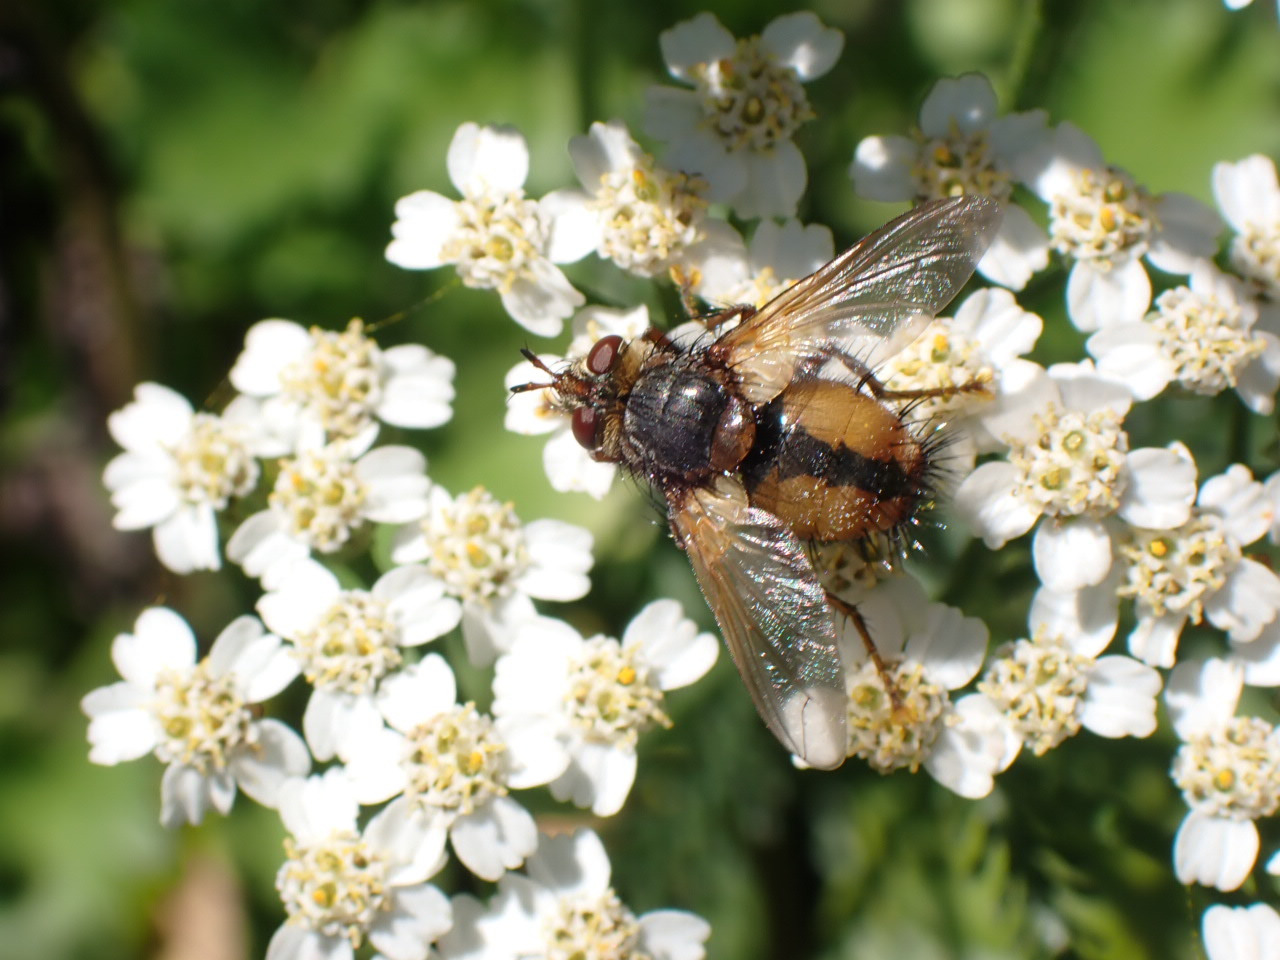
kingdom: Animalia
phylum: Arthropoda
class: Insecta
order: Diptera
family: Tachinidae
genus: Tachina
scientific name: Tachina fera
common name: Mellemfluen oskar
